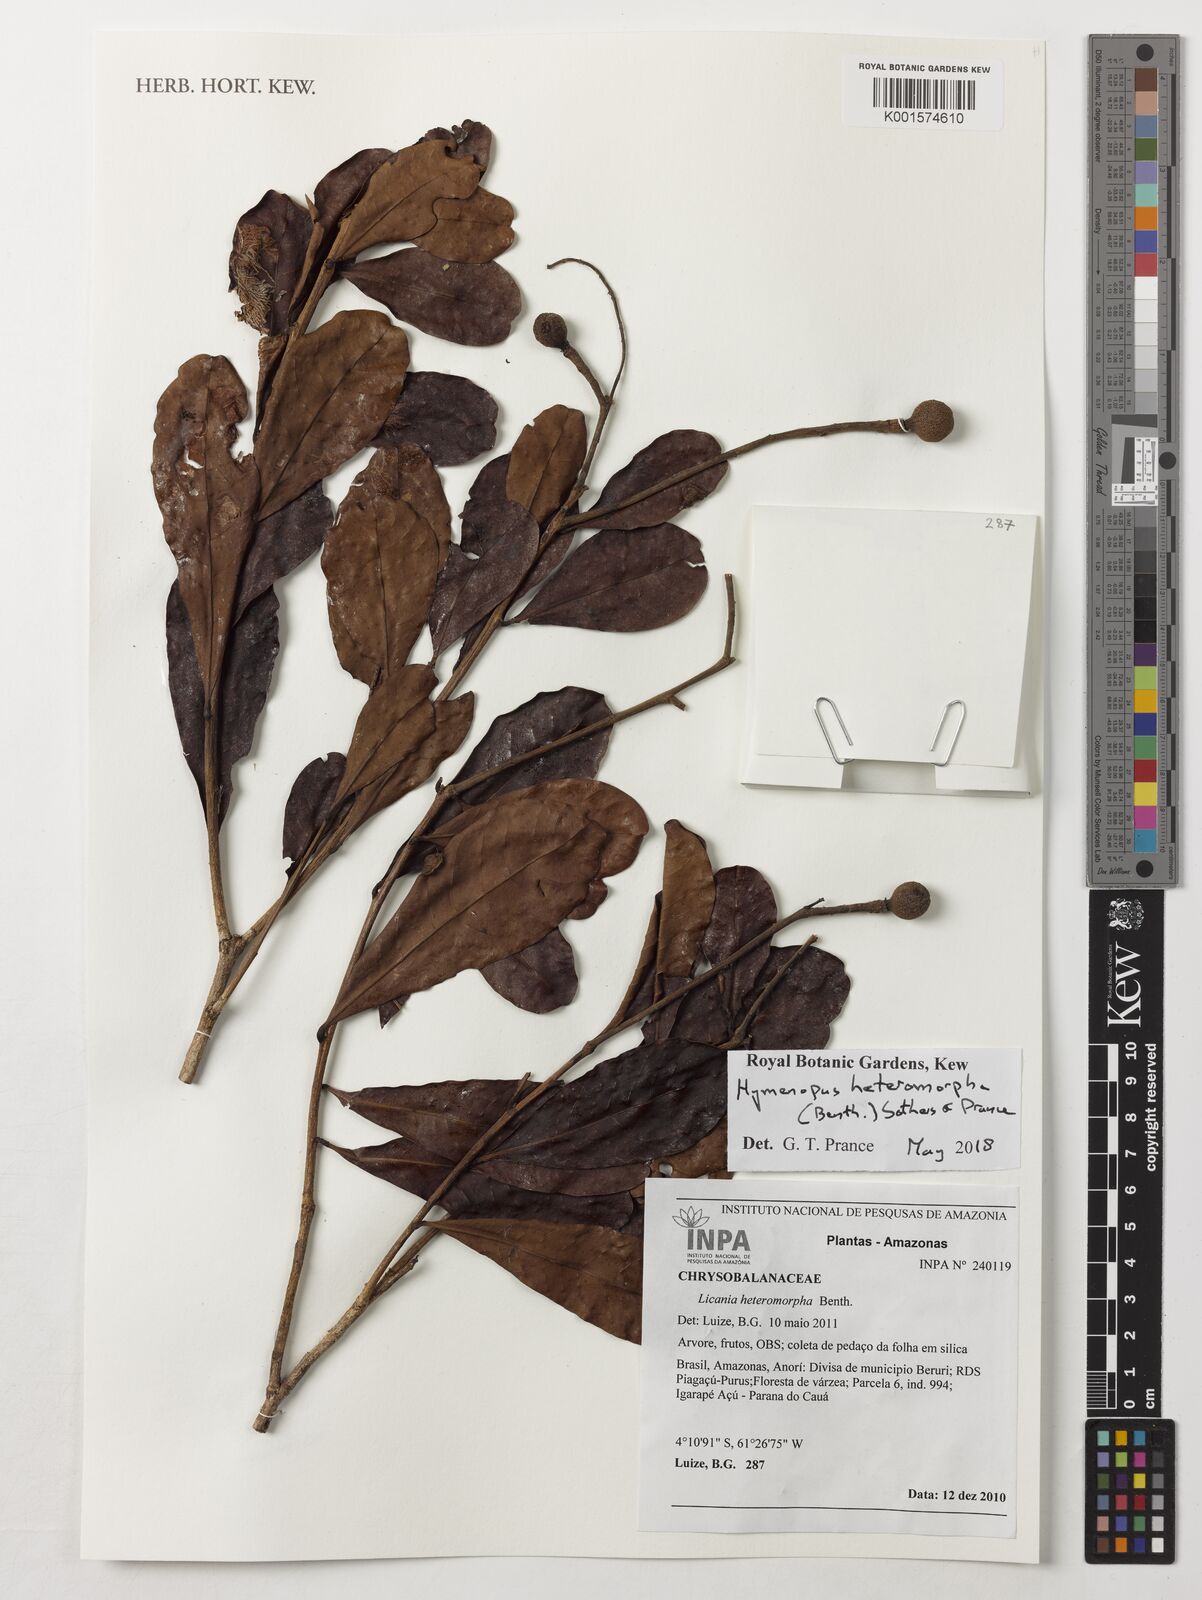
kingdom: Plantae
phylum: Tracheophyta
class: Magnoliopsida
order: Malpighiales
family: Chrysobalanaceae
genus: Hymenopus
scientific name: Hymenopus heteromorphus
